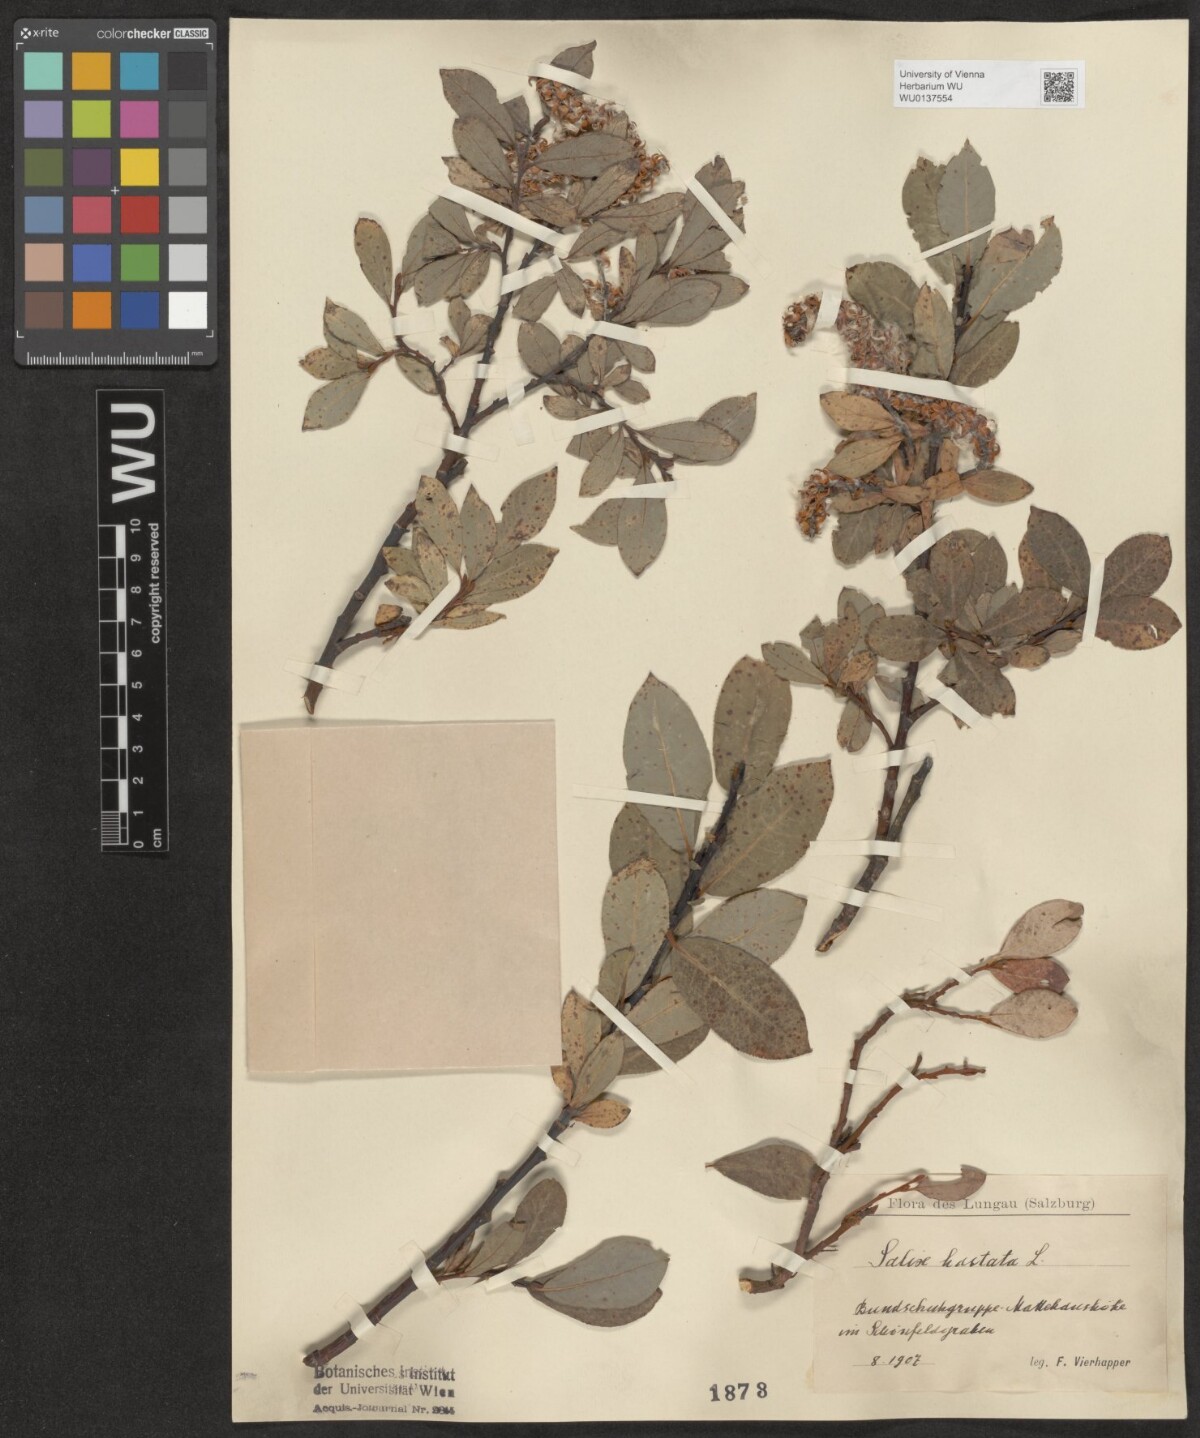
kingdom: Plantae
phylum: Tracheophyta
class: Magnoliopsida
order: Malpighiales
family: Salicaceae
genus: Salix
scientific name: Salix hastata
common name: Halberd willow
